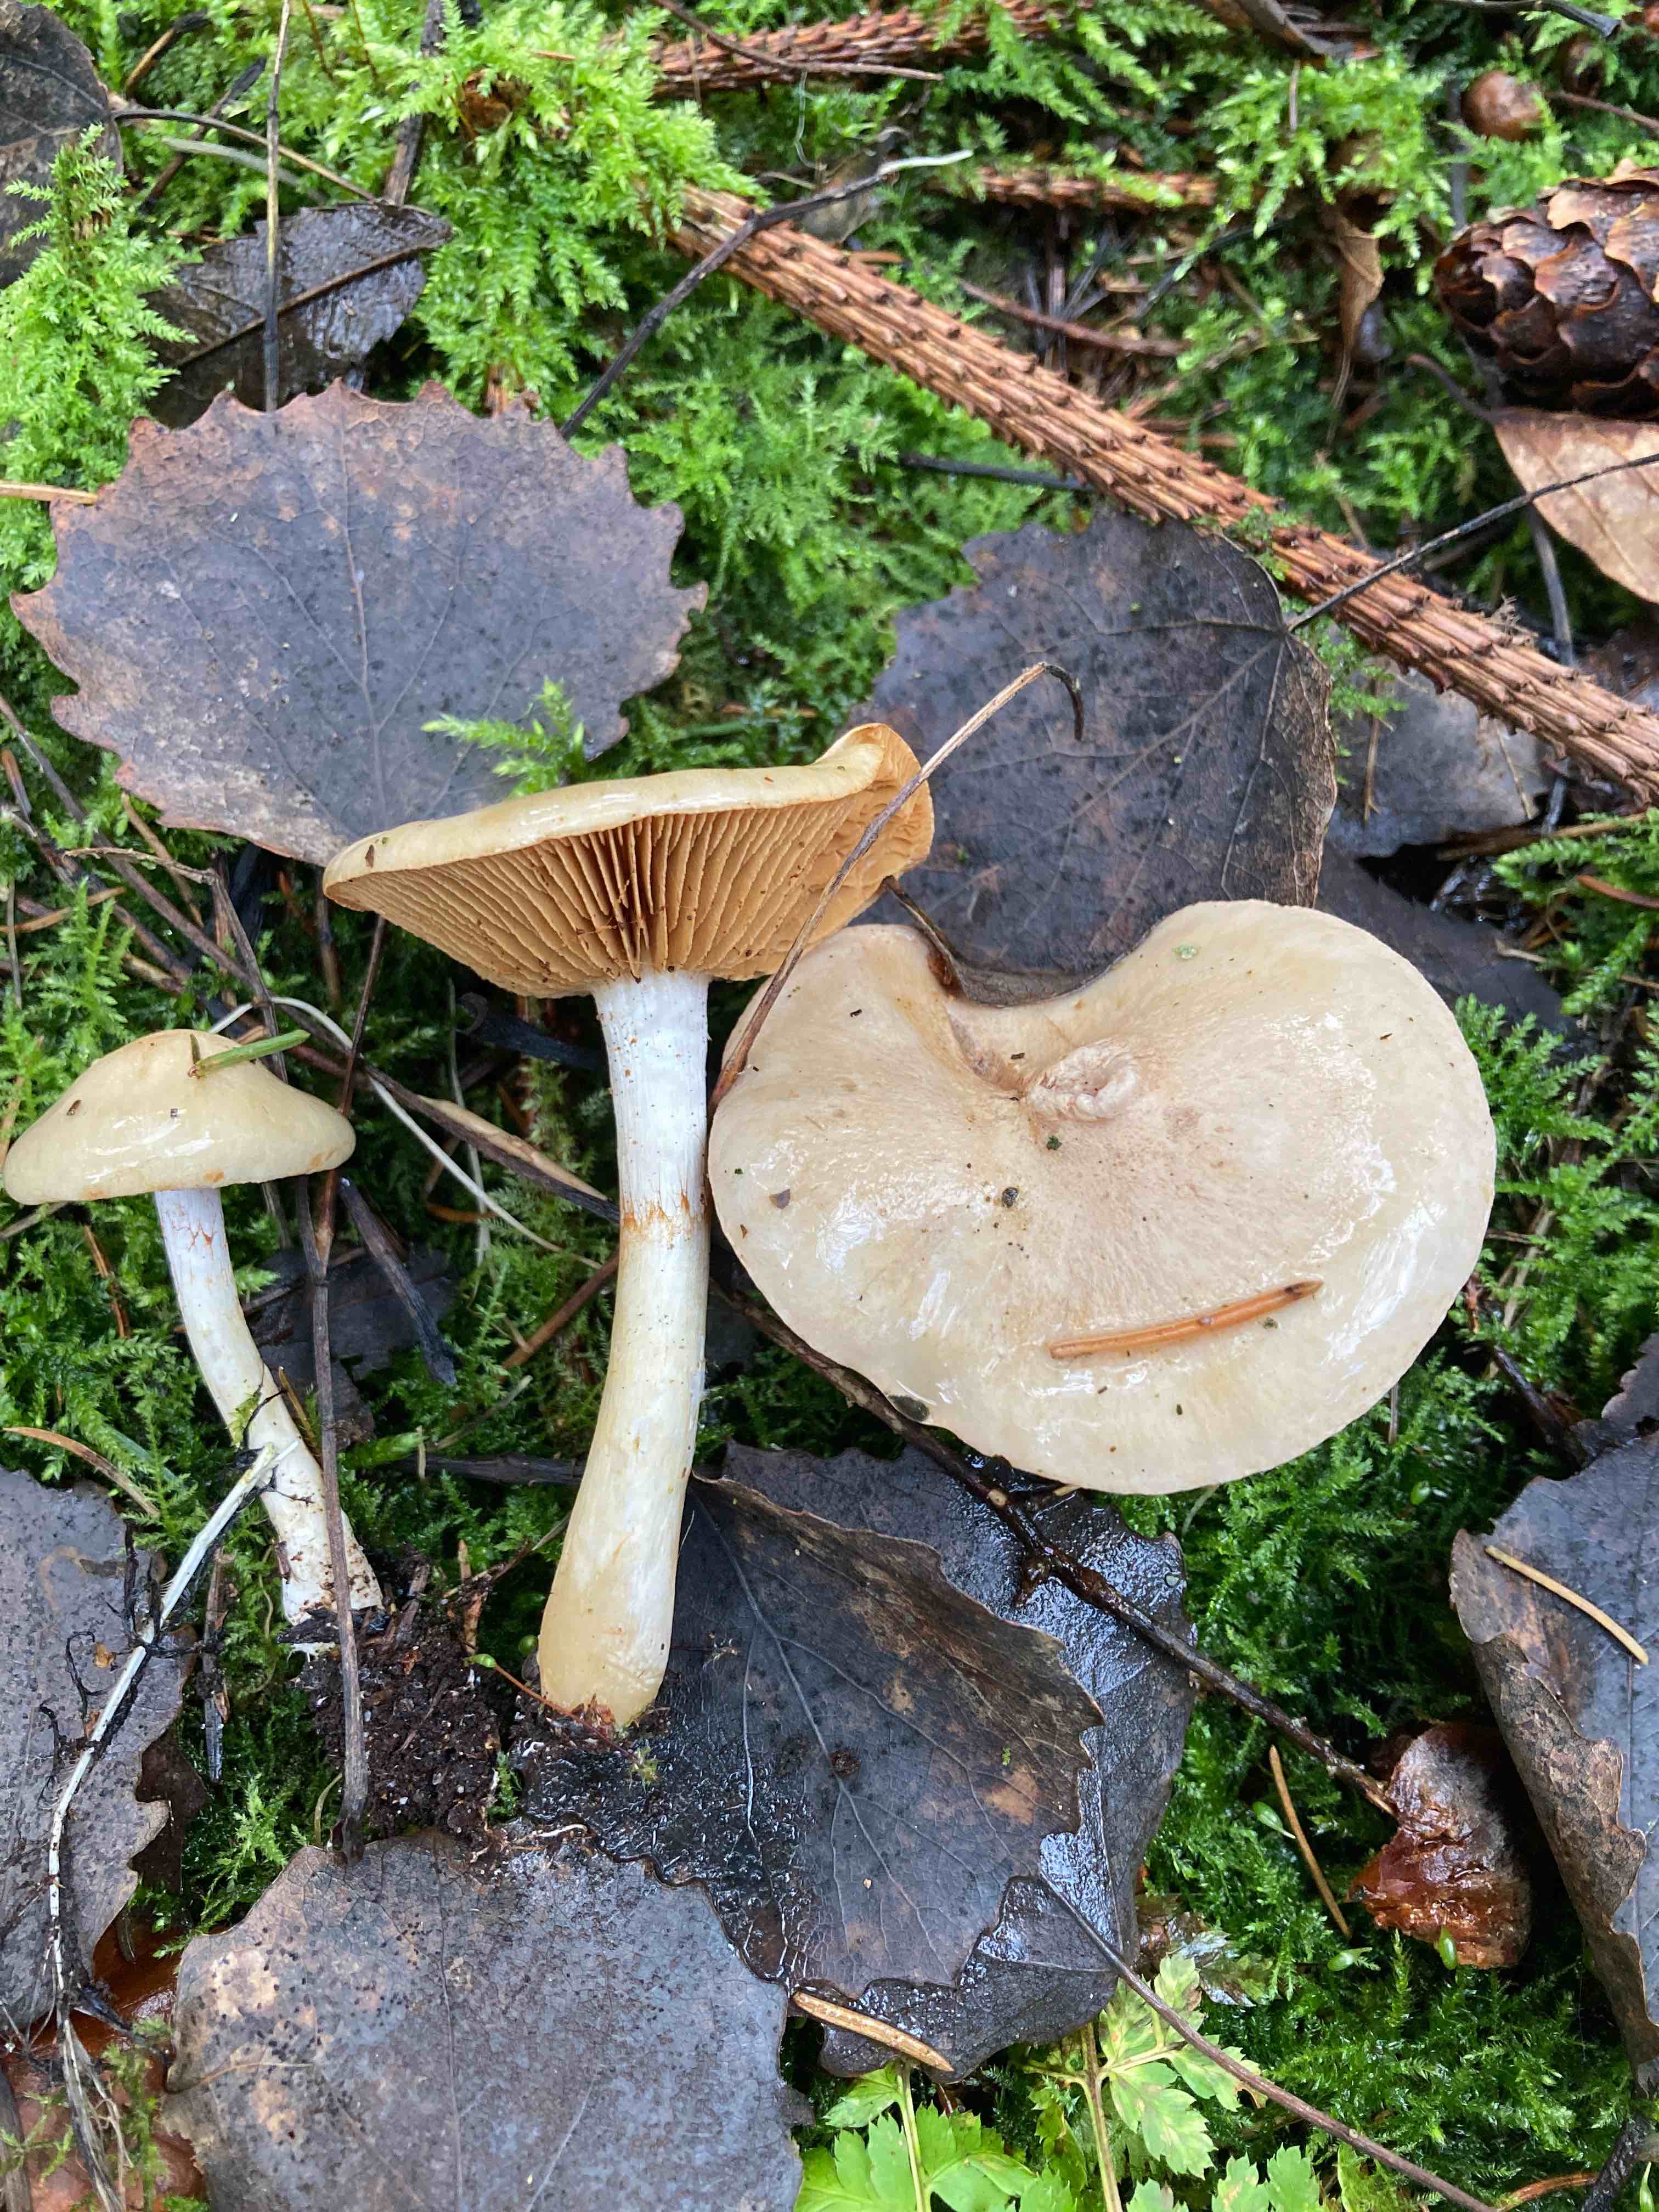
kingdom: Fungi
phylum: Basidiomycota
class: Agaricomycetes
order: Agaricales
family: Cortinariaceae
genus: Cortinarius
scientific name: Cortinarius delibutus
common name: gul slørhat
